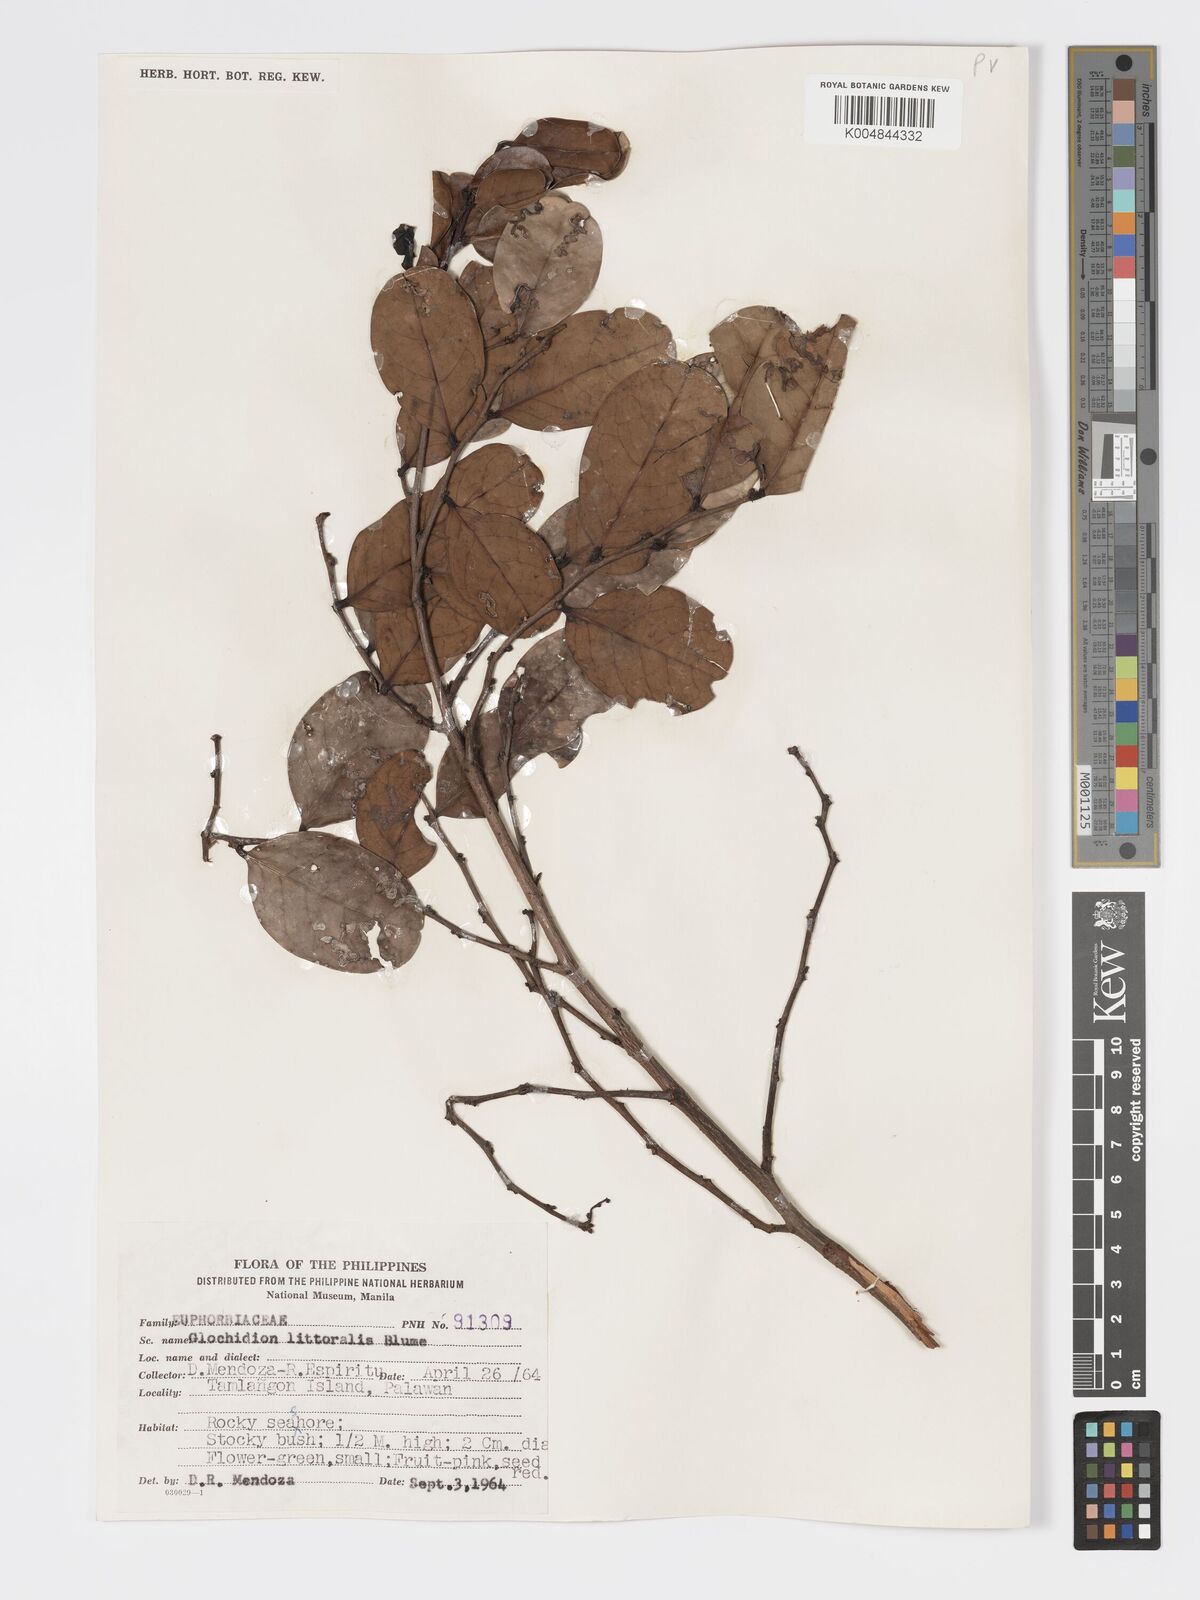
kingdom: Plantae
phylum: Tracheophyta
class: Magnoliopsida
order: Malpighiales
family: Phyllanthaceae
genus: Glochidion
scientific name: Glochidion
